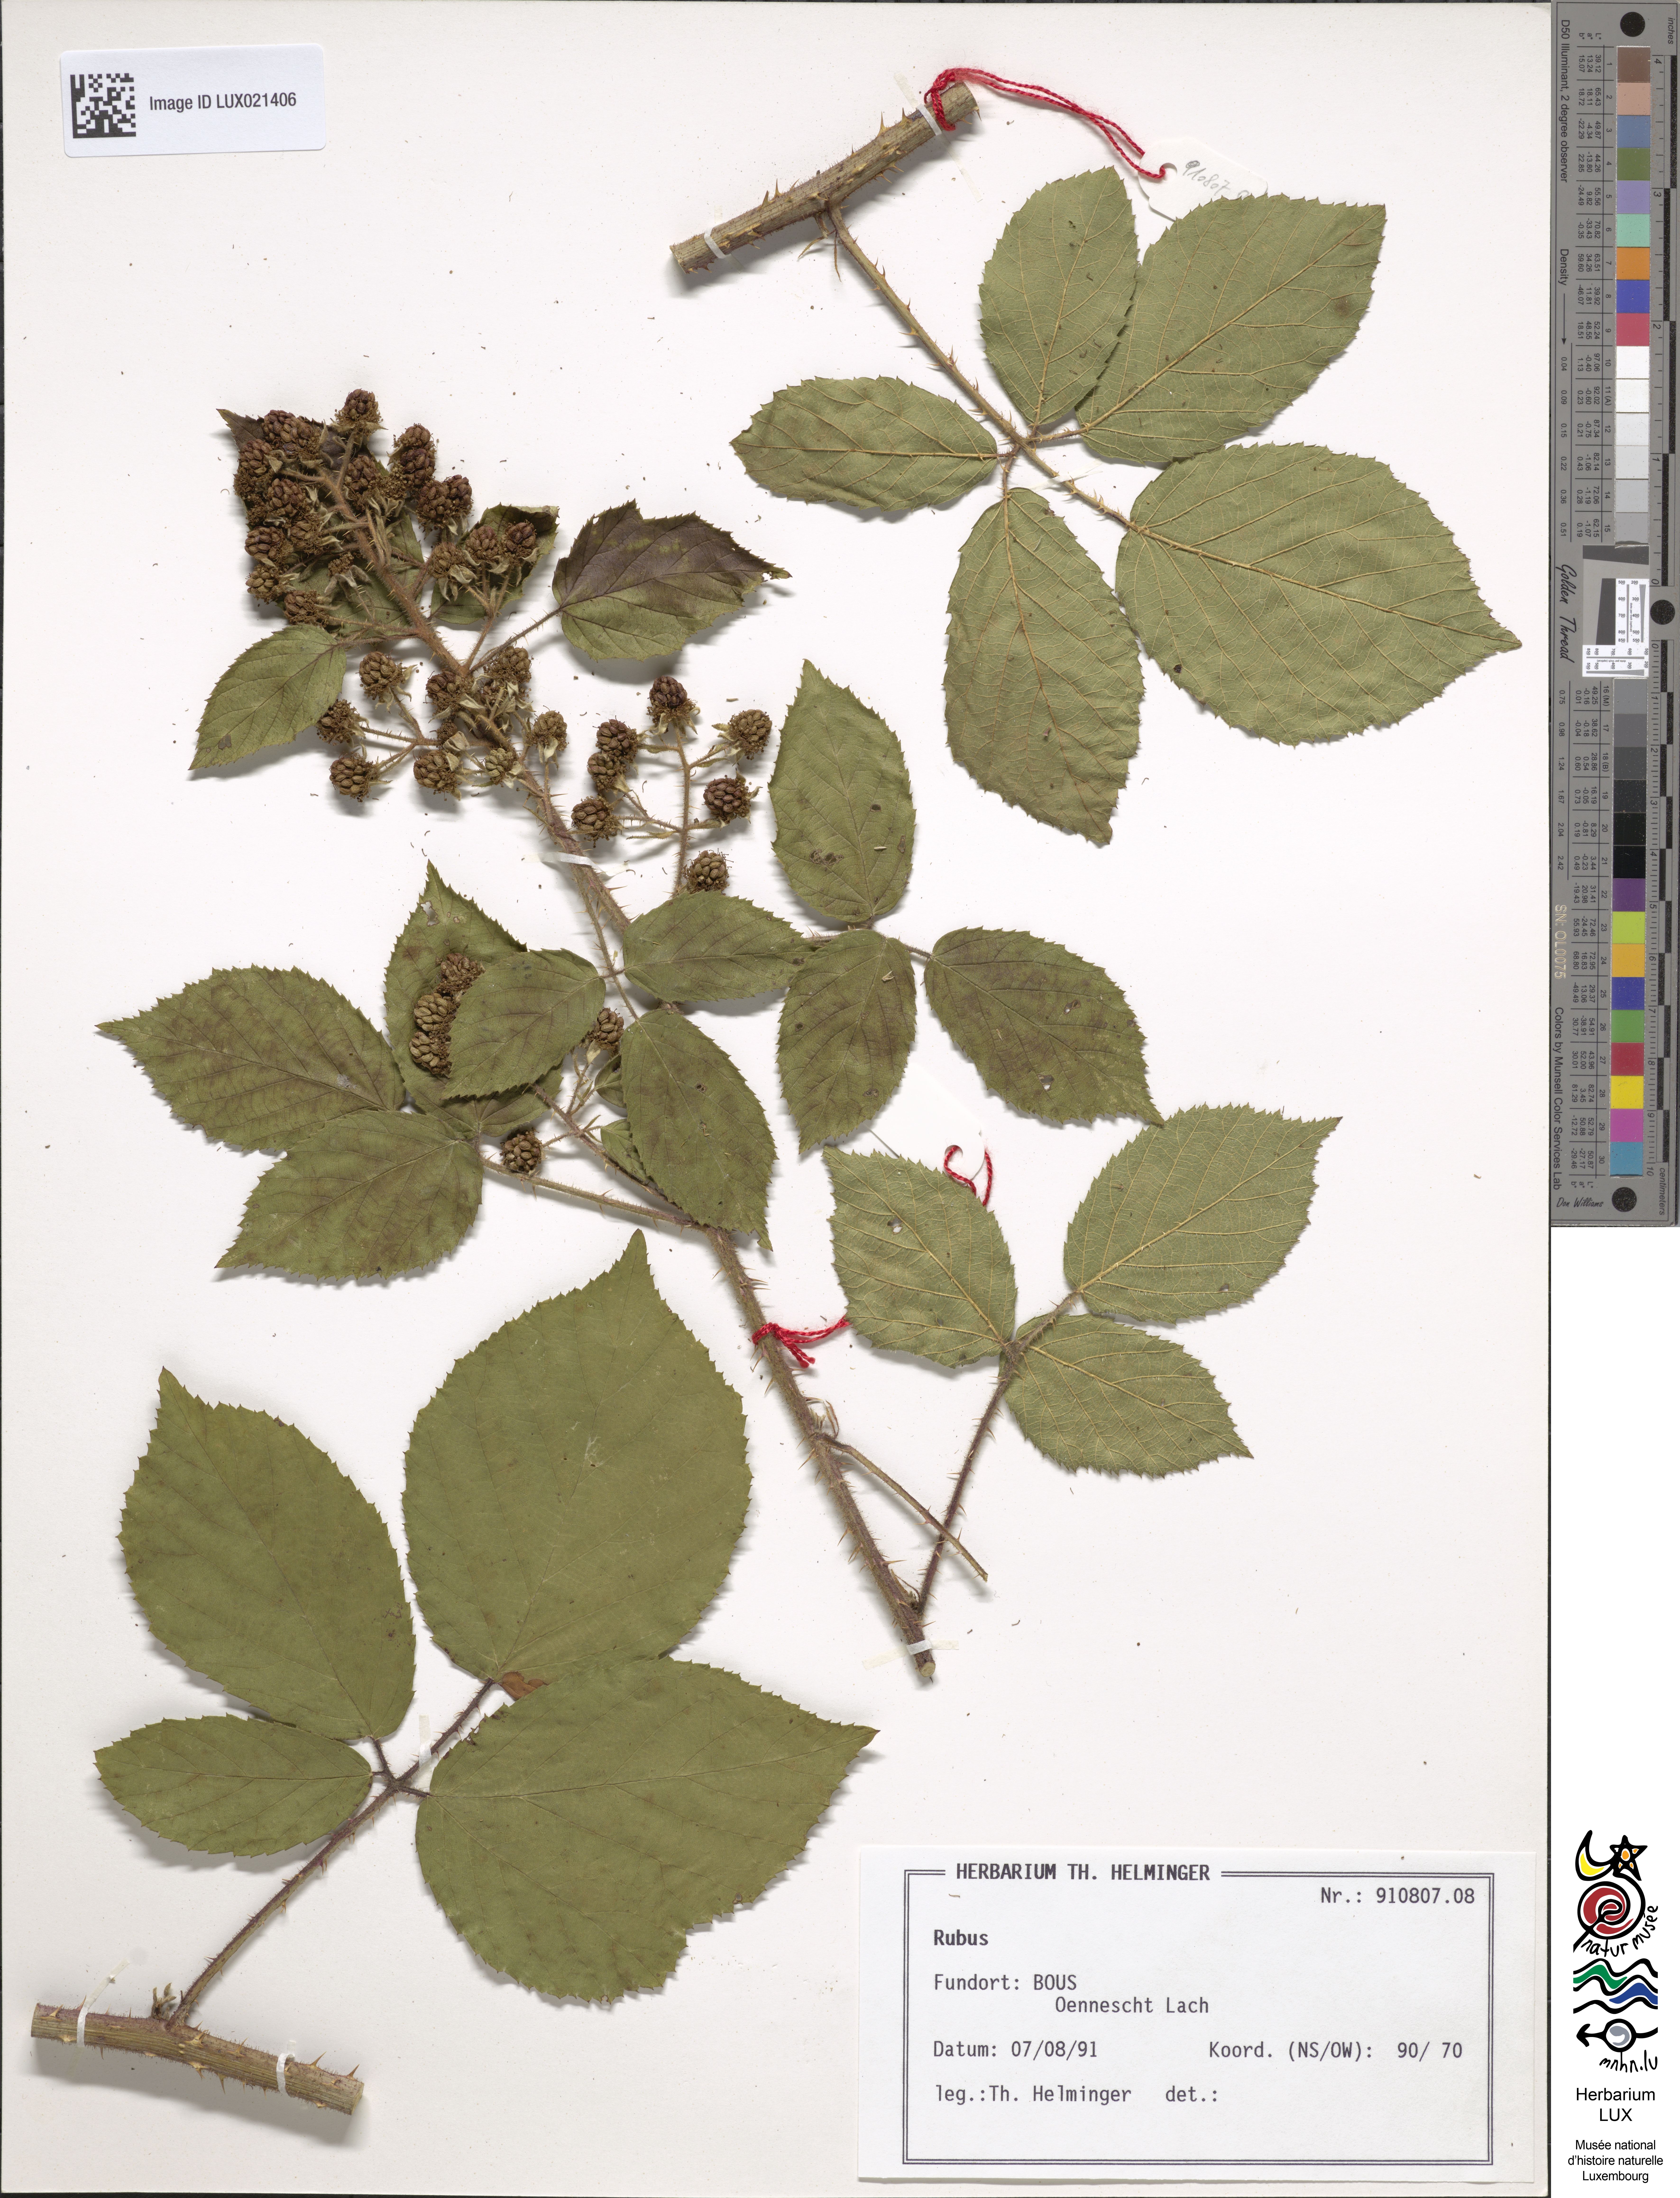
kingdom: Plantae
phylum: Tracheophyta
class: Magnoliopsida
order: Rosales
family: Rosaceae
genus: Rubus
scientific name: Rubus
